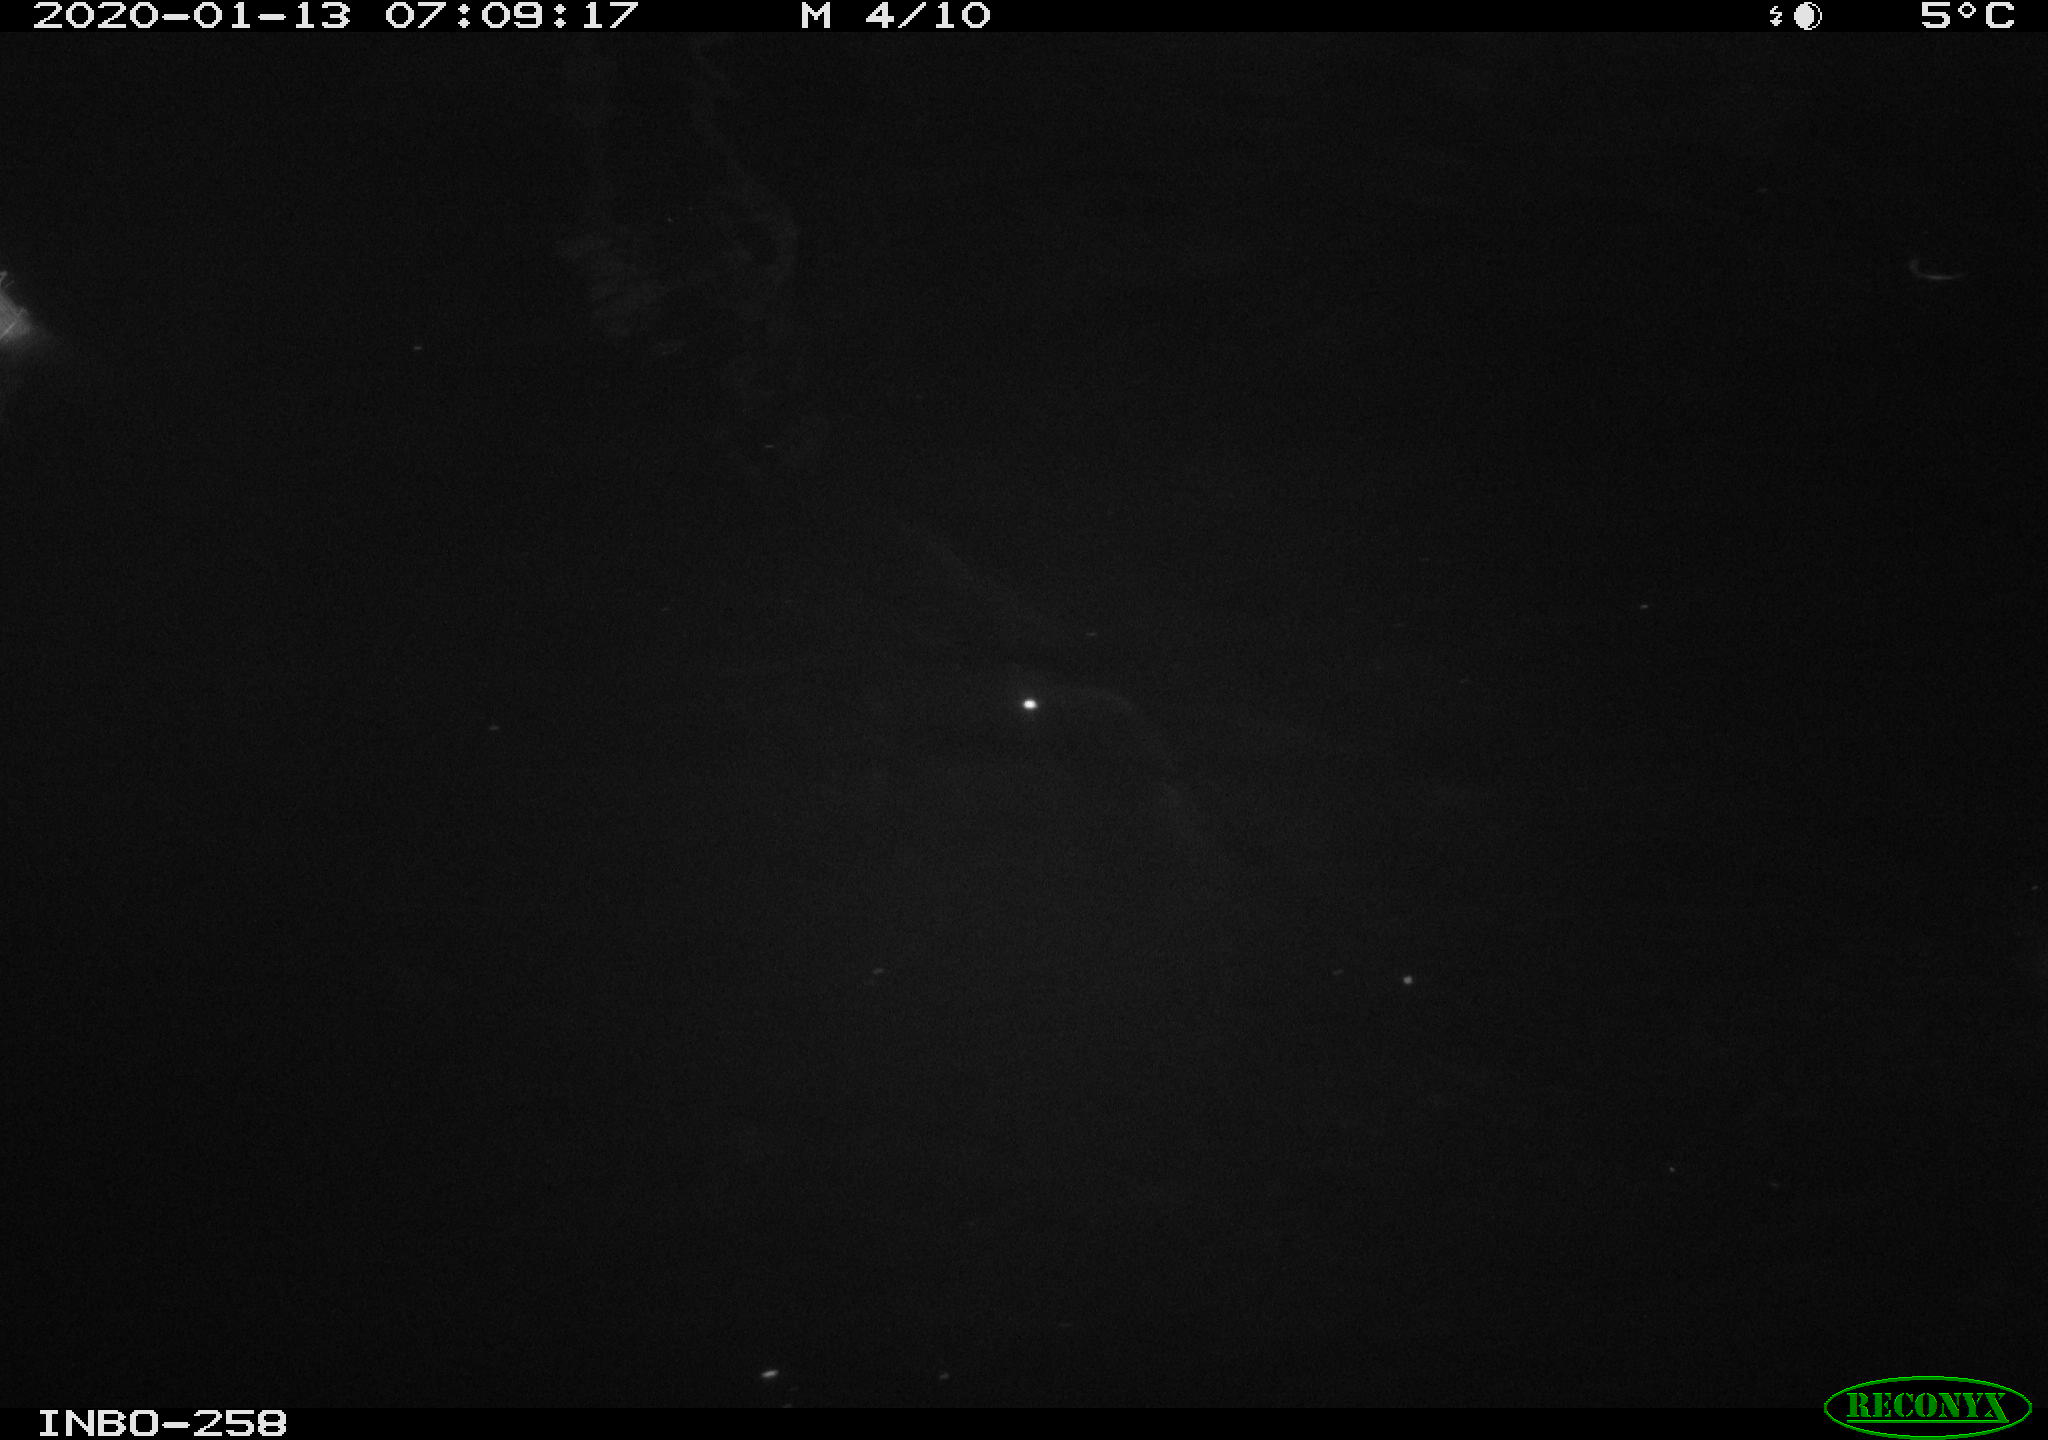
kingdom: Animalia
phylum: Chordata
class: Aves
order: Anseriformes
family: Anatidae
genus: Anas
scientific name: Anas platyrhynchos
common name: Mallard
